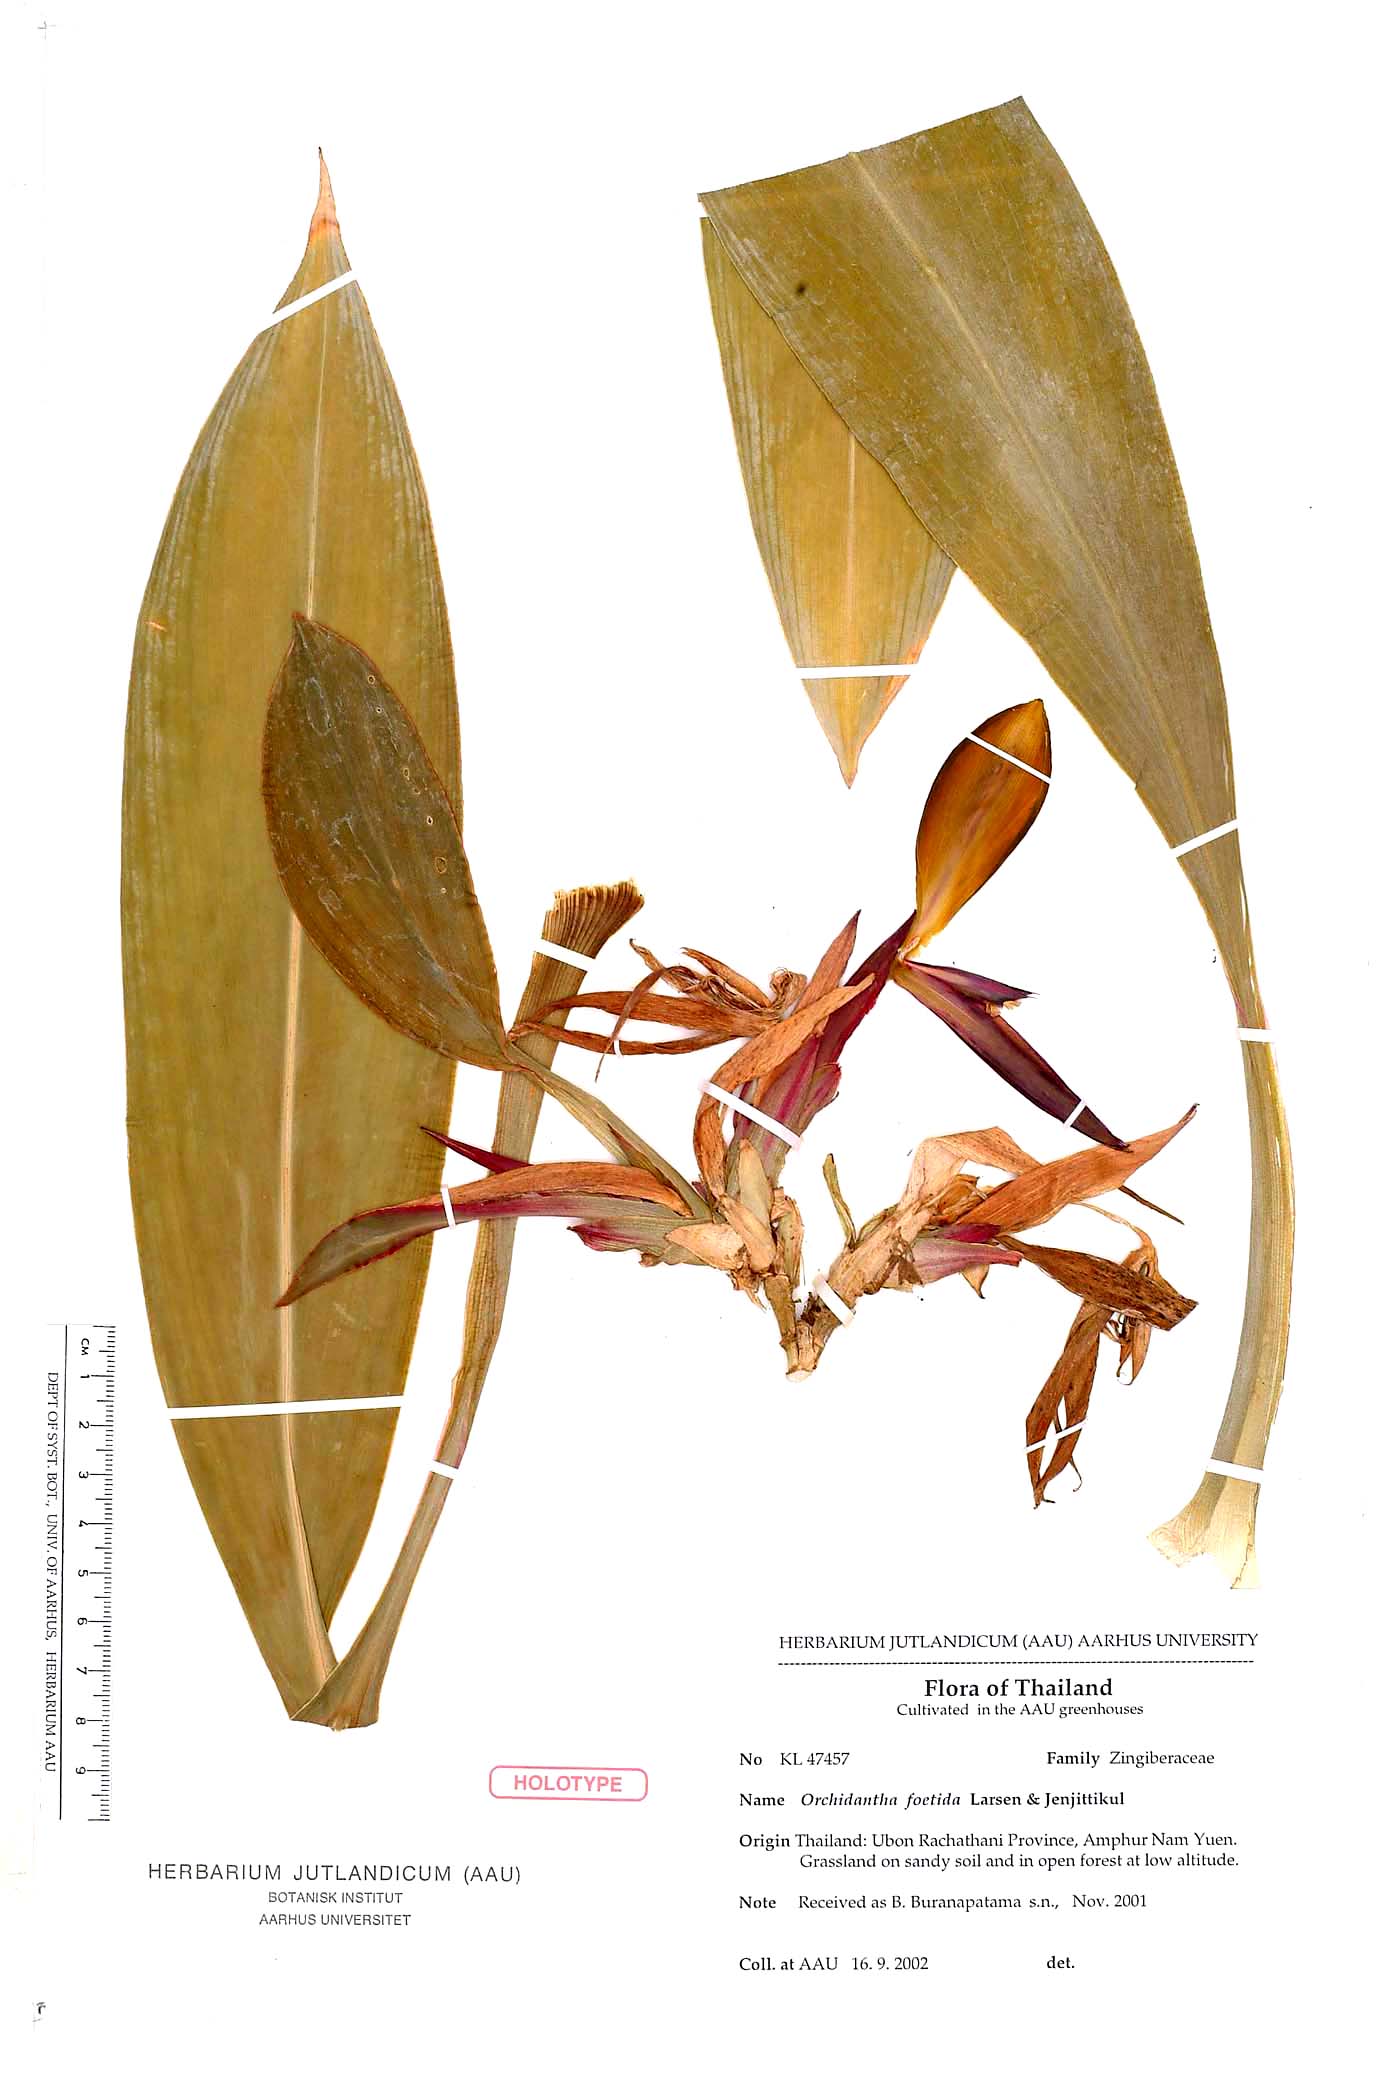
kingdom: Plantae
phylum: Tracheophyta
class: Liliopsida
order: Zingiberales
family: Lowiaceae
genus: Orchidantha
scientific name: Orchidantha foetida
